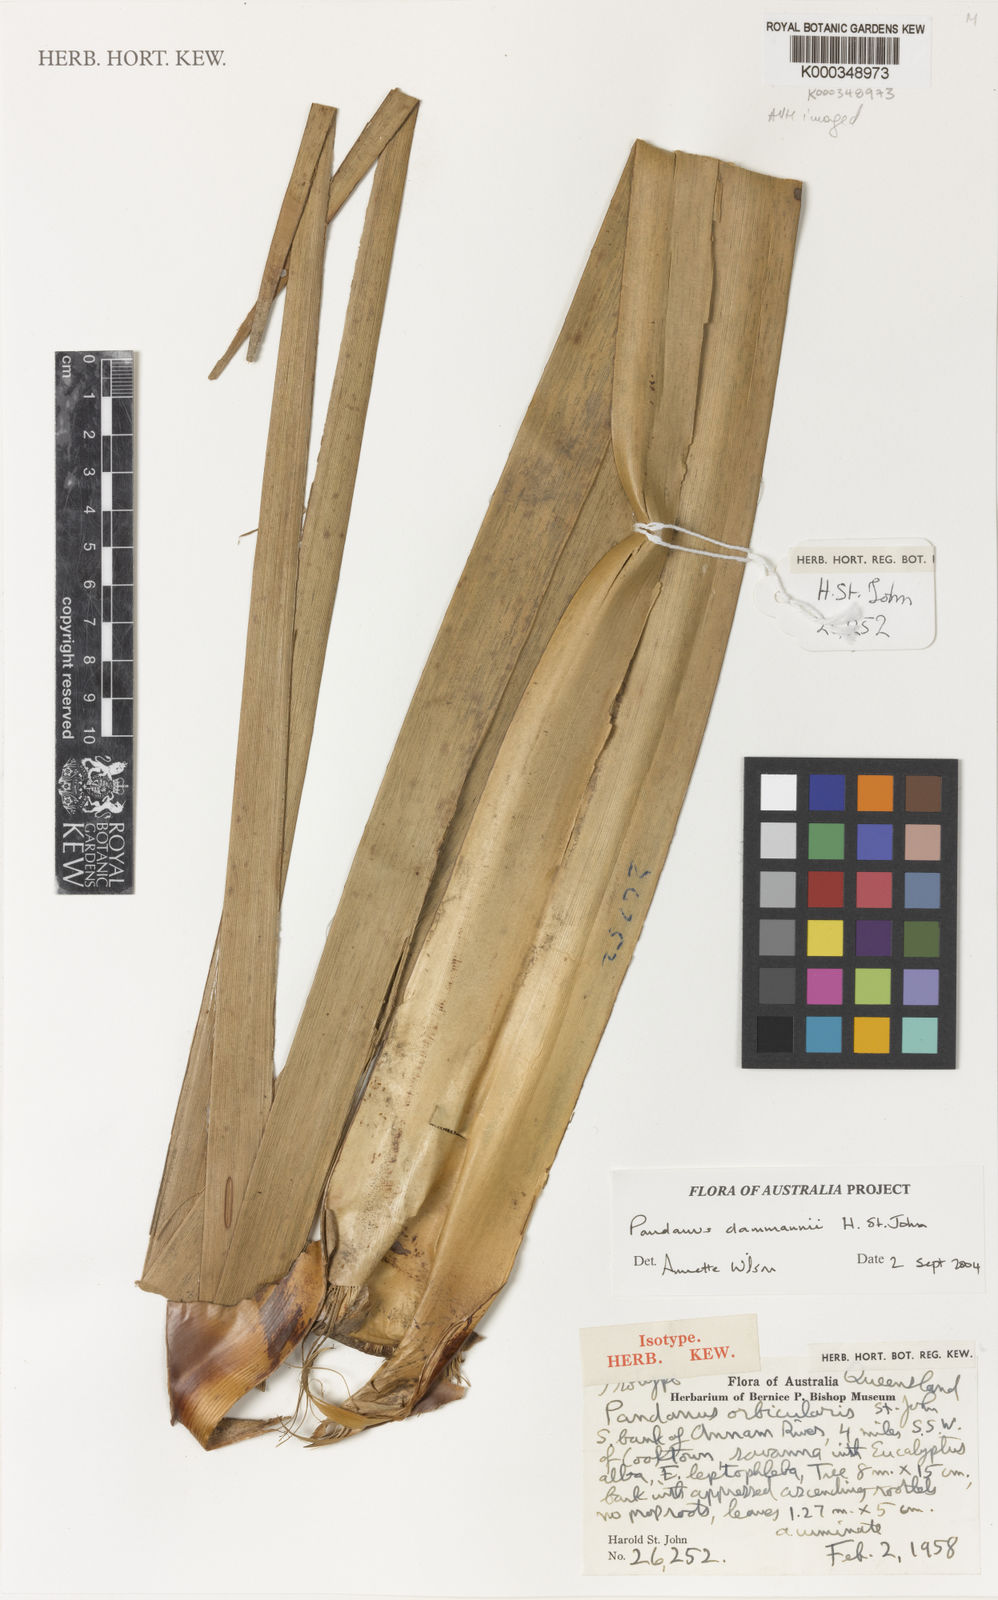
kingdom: Plantae
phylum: Tracheophyta
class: Liliopsida
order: Pandanales
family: Pandanaceae
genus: Pandanus
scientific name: Pandanus
